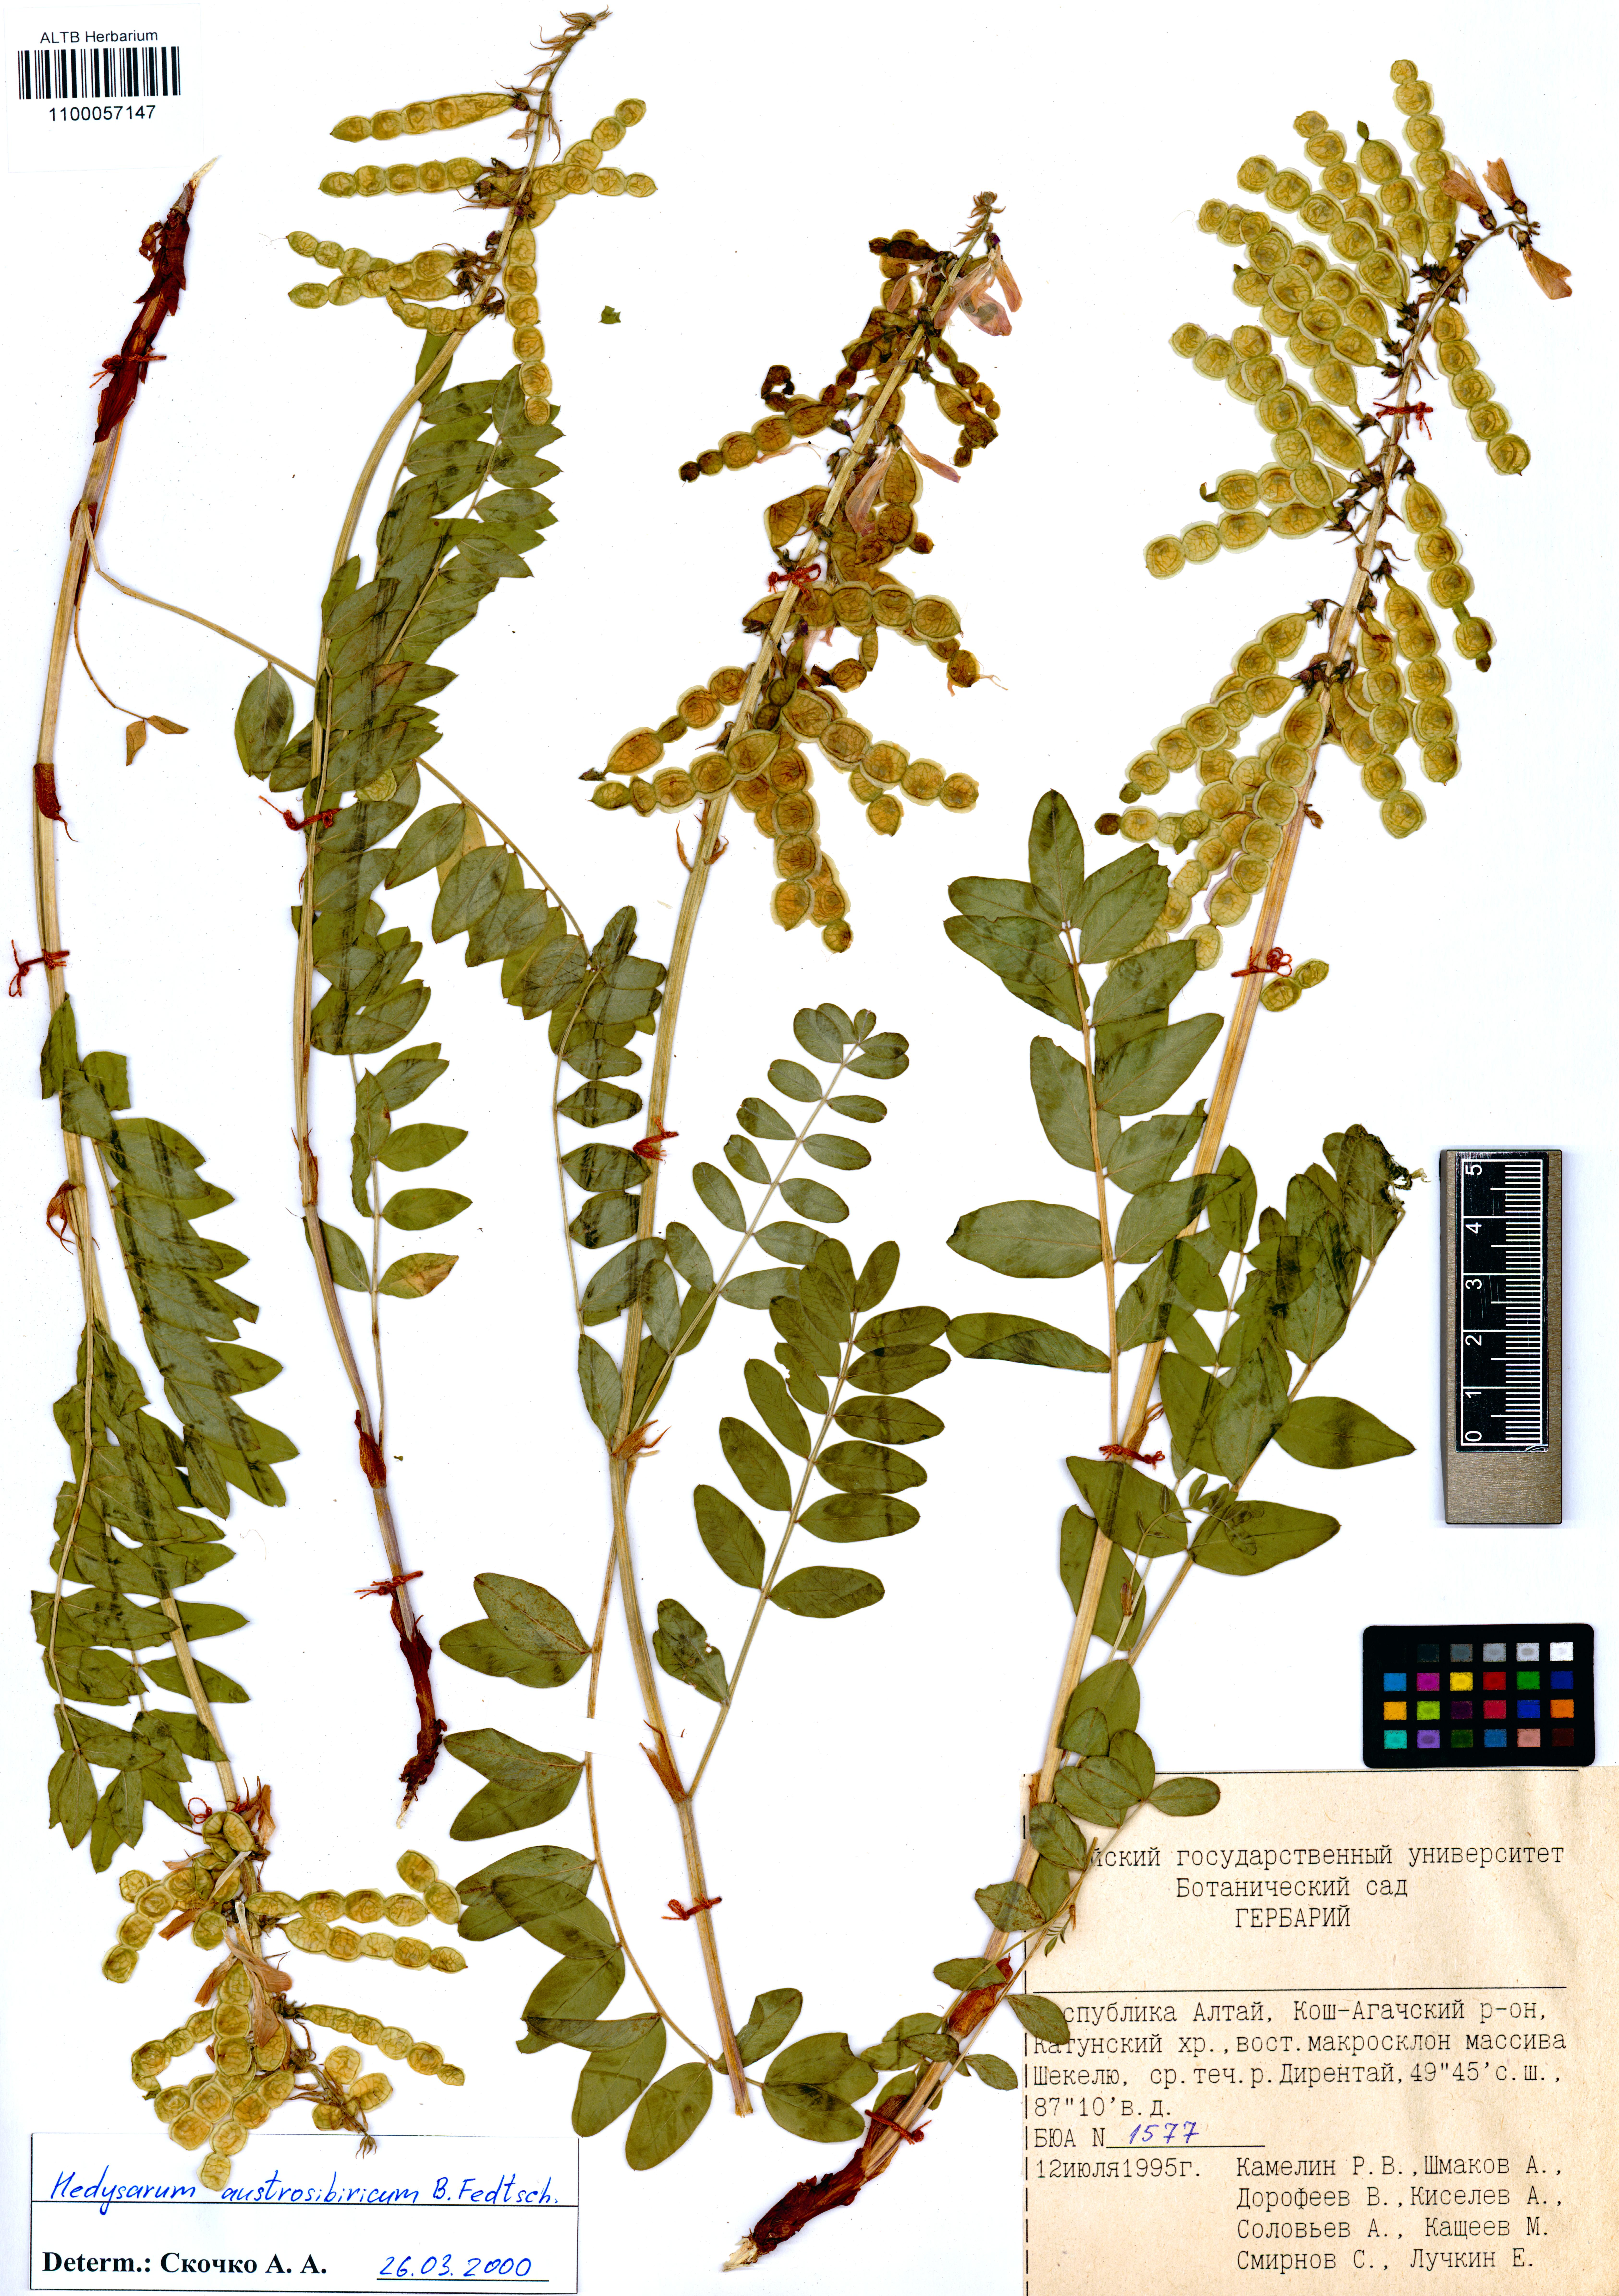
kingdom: Plantae
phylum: Tracheophyta
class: Magnoliopsida
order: Fabales
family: Fabaceae
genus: Hedysarum
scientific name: Hedysarum neglectum
